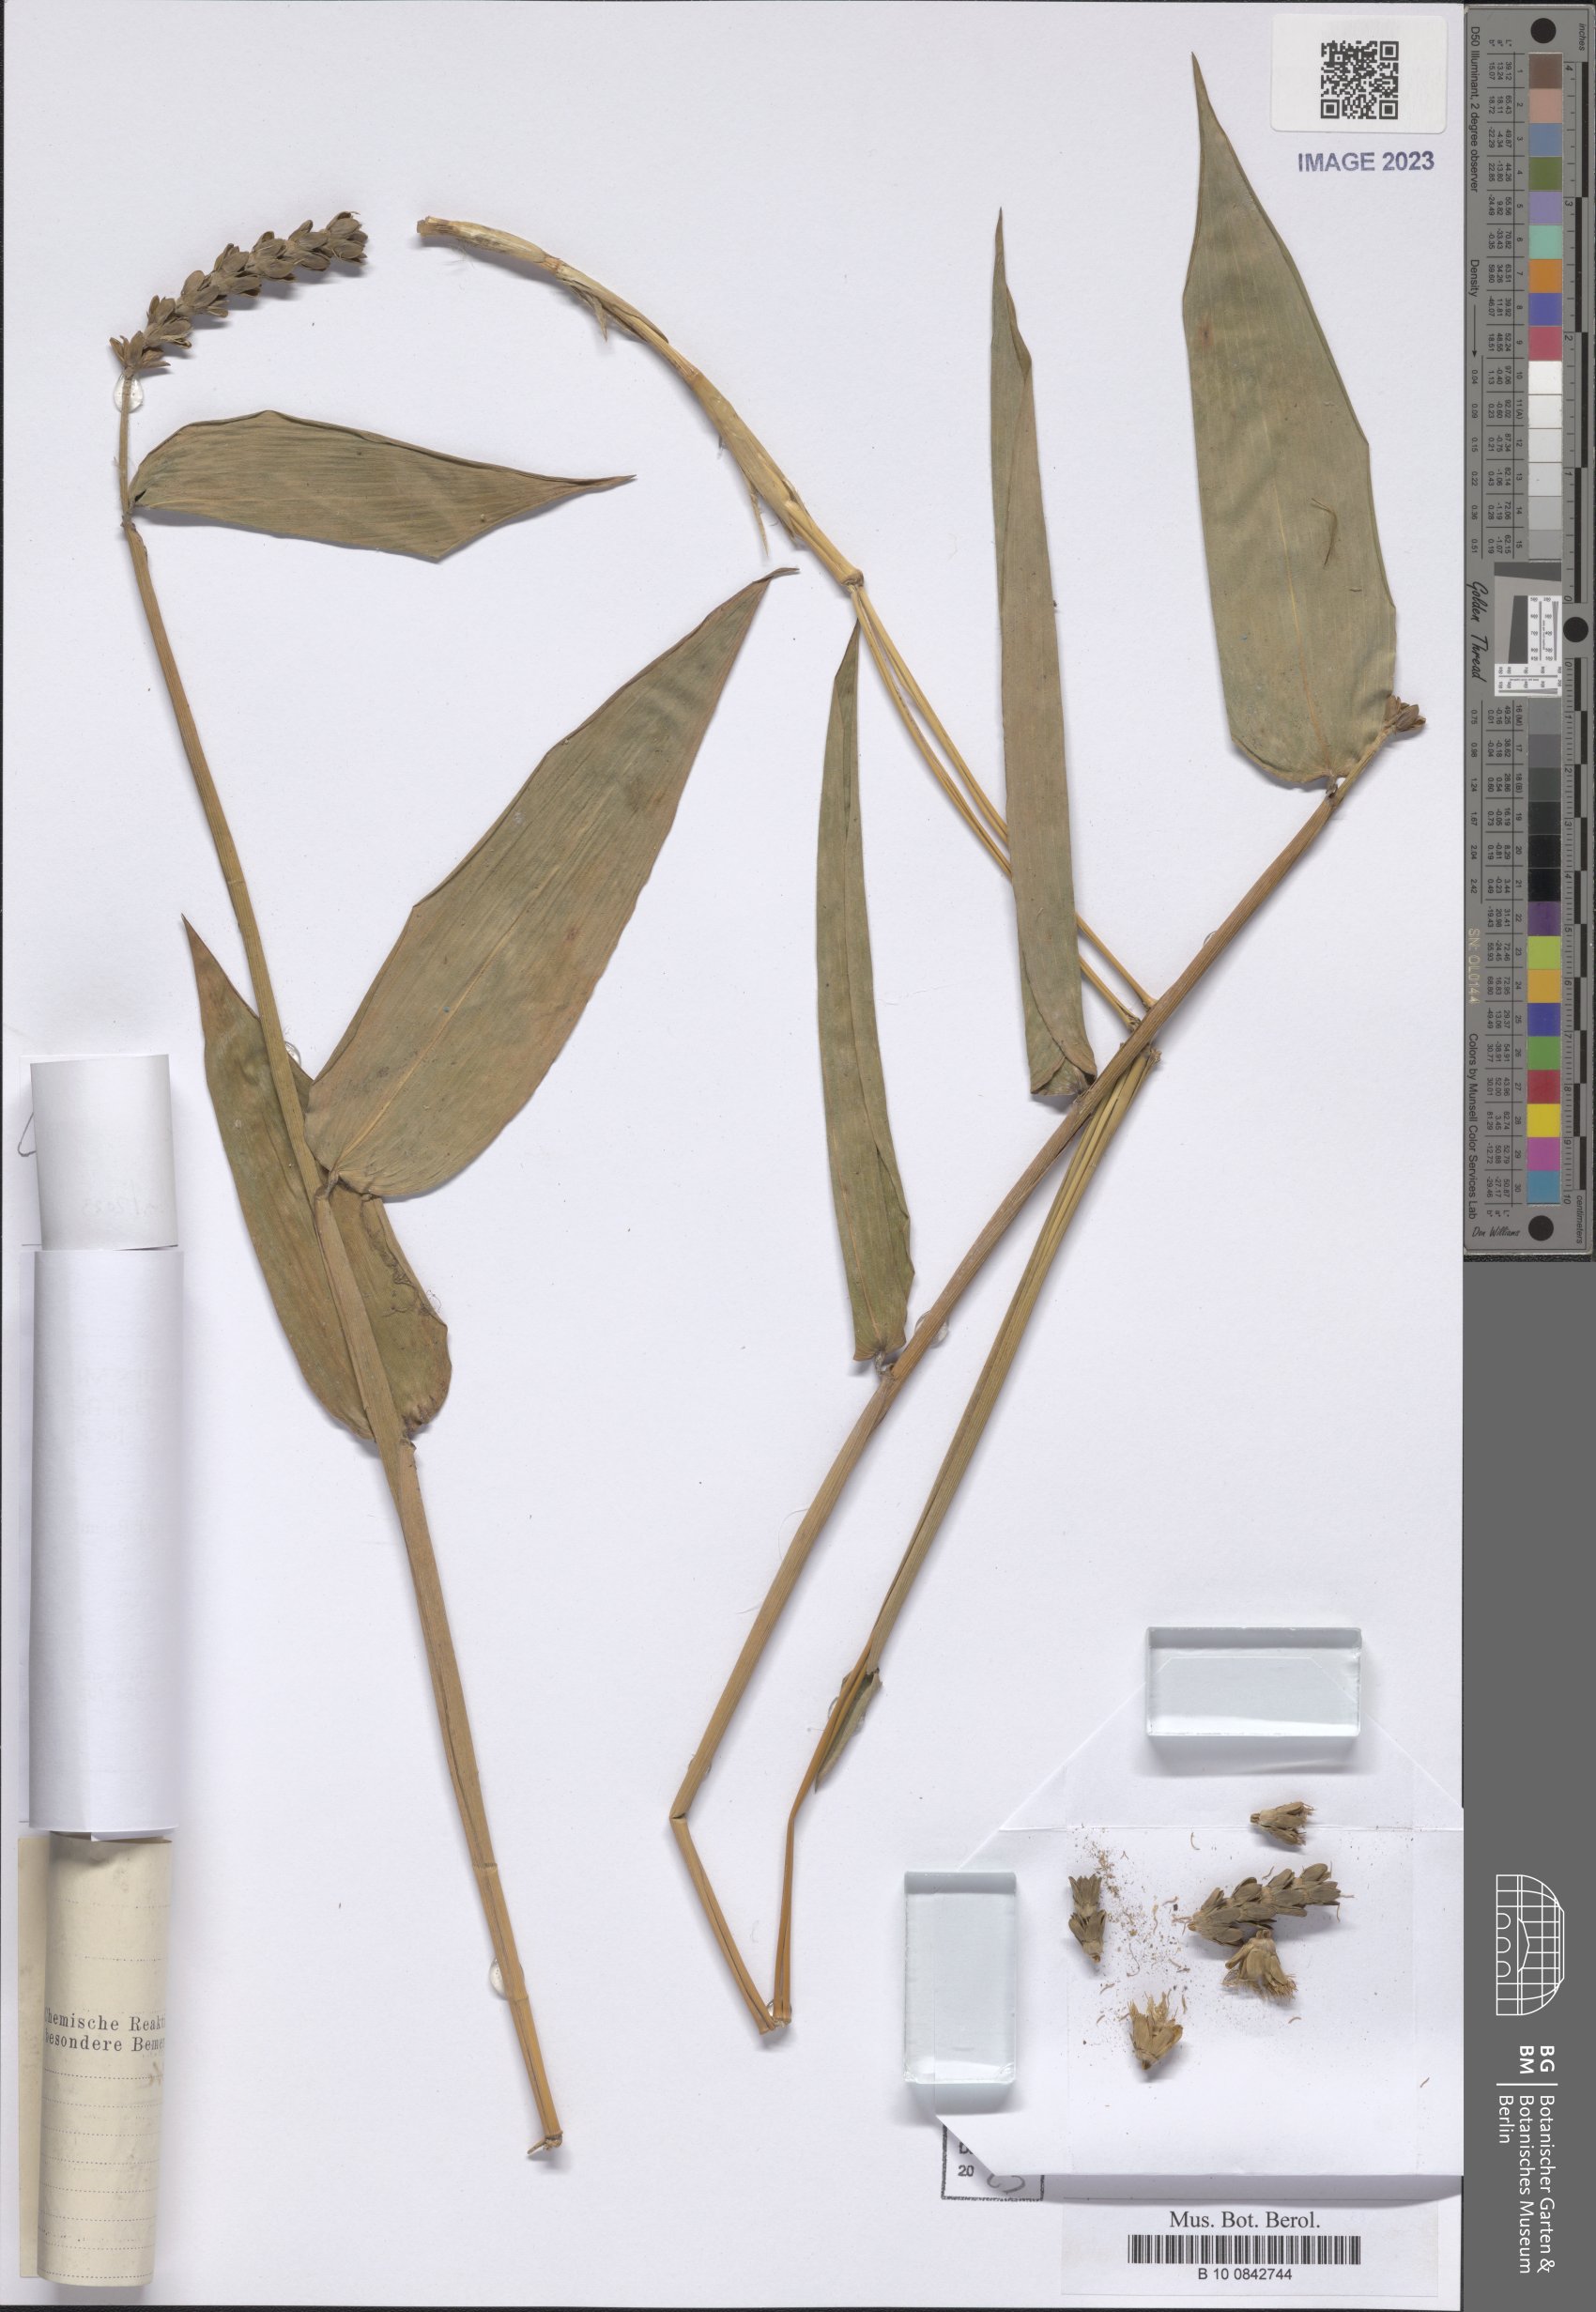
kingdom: Plantae
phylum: Tracheophyta
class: Liliopsida
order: Zingiberales
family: Marantaceae
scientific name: Marantaceae
